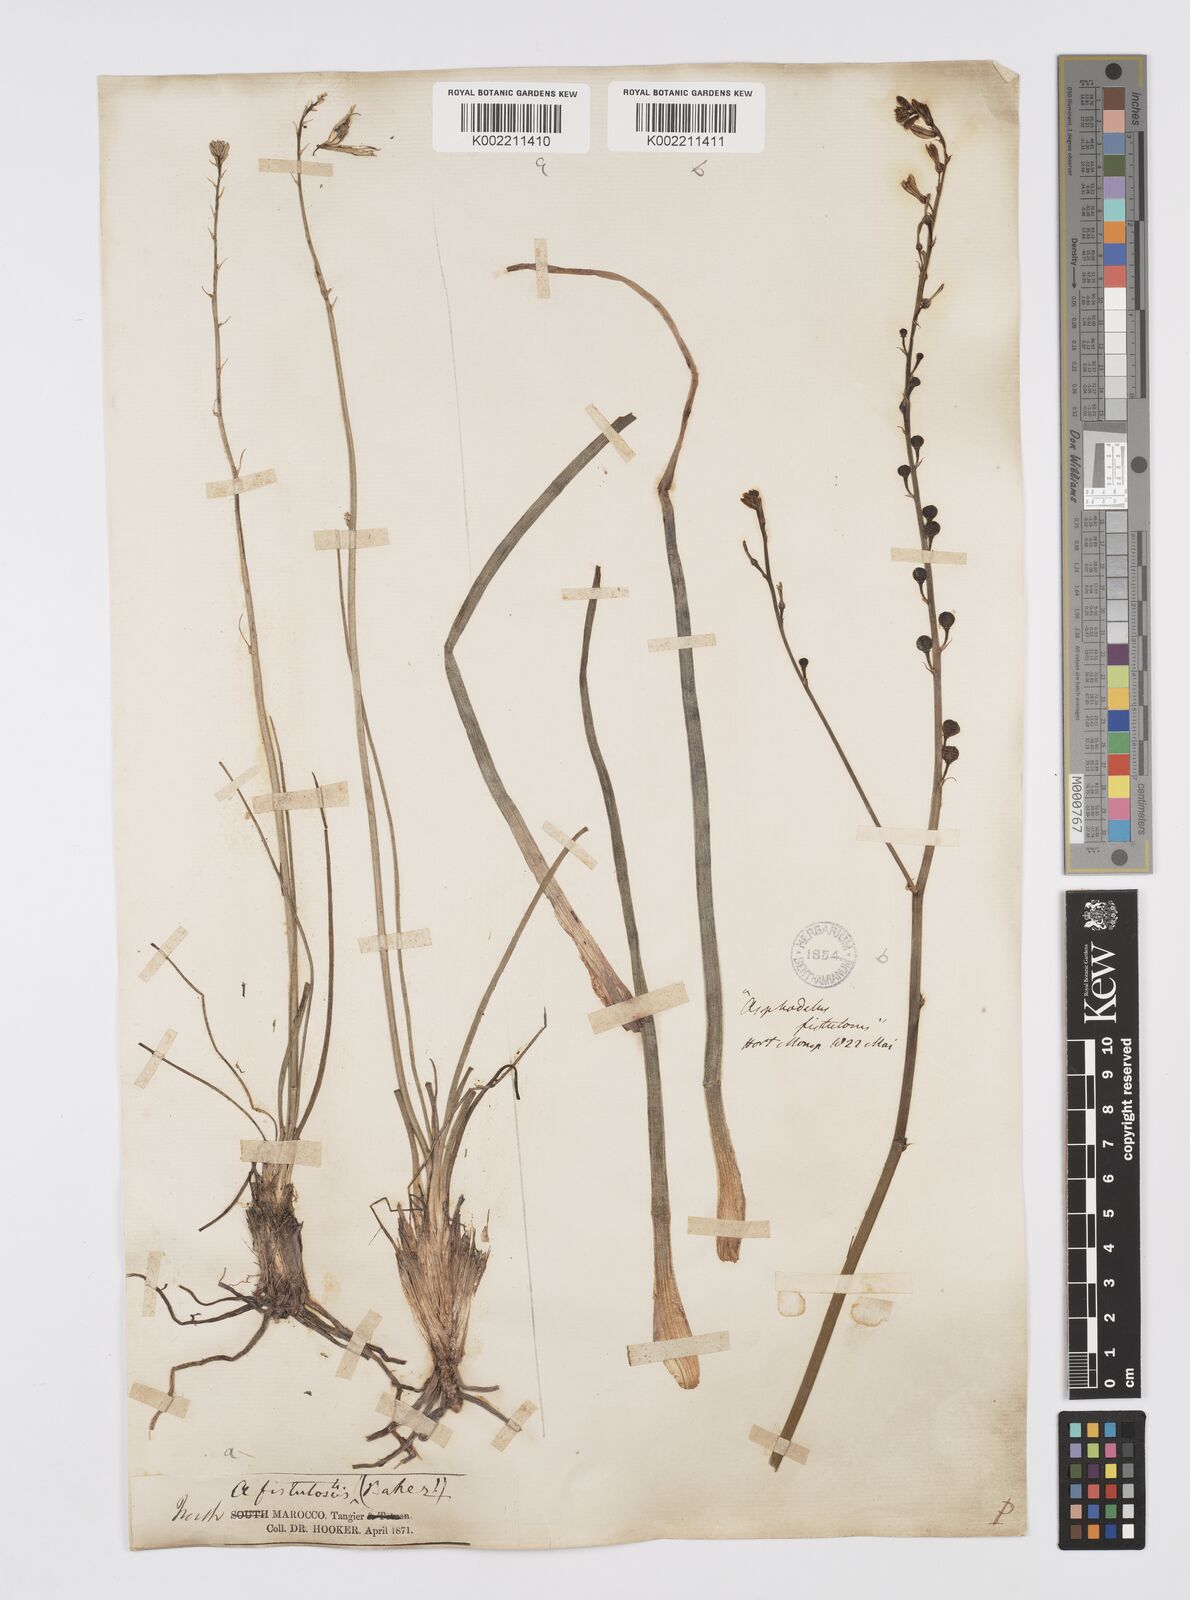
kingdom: Plantae
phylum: Tracheophyta
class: Liliopsida
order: Asparagales
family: Asphodelaceae
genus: Asphodelus
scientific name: Asphodelus fistulosus
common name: Onionweed
